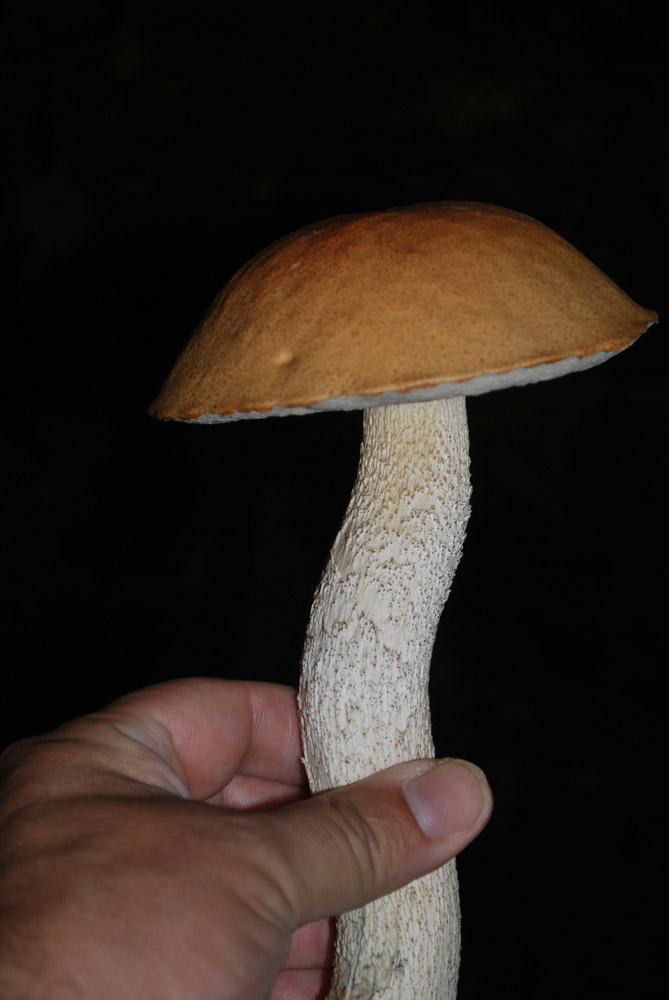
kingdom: Fungi
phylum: Basidiomycota
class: Agaricomycetes
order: Boletales
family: Boletaceae
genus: Leccinum
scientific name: Leccinum albostipitatum
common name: aspe-skælrørhat
